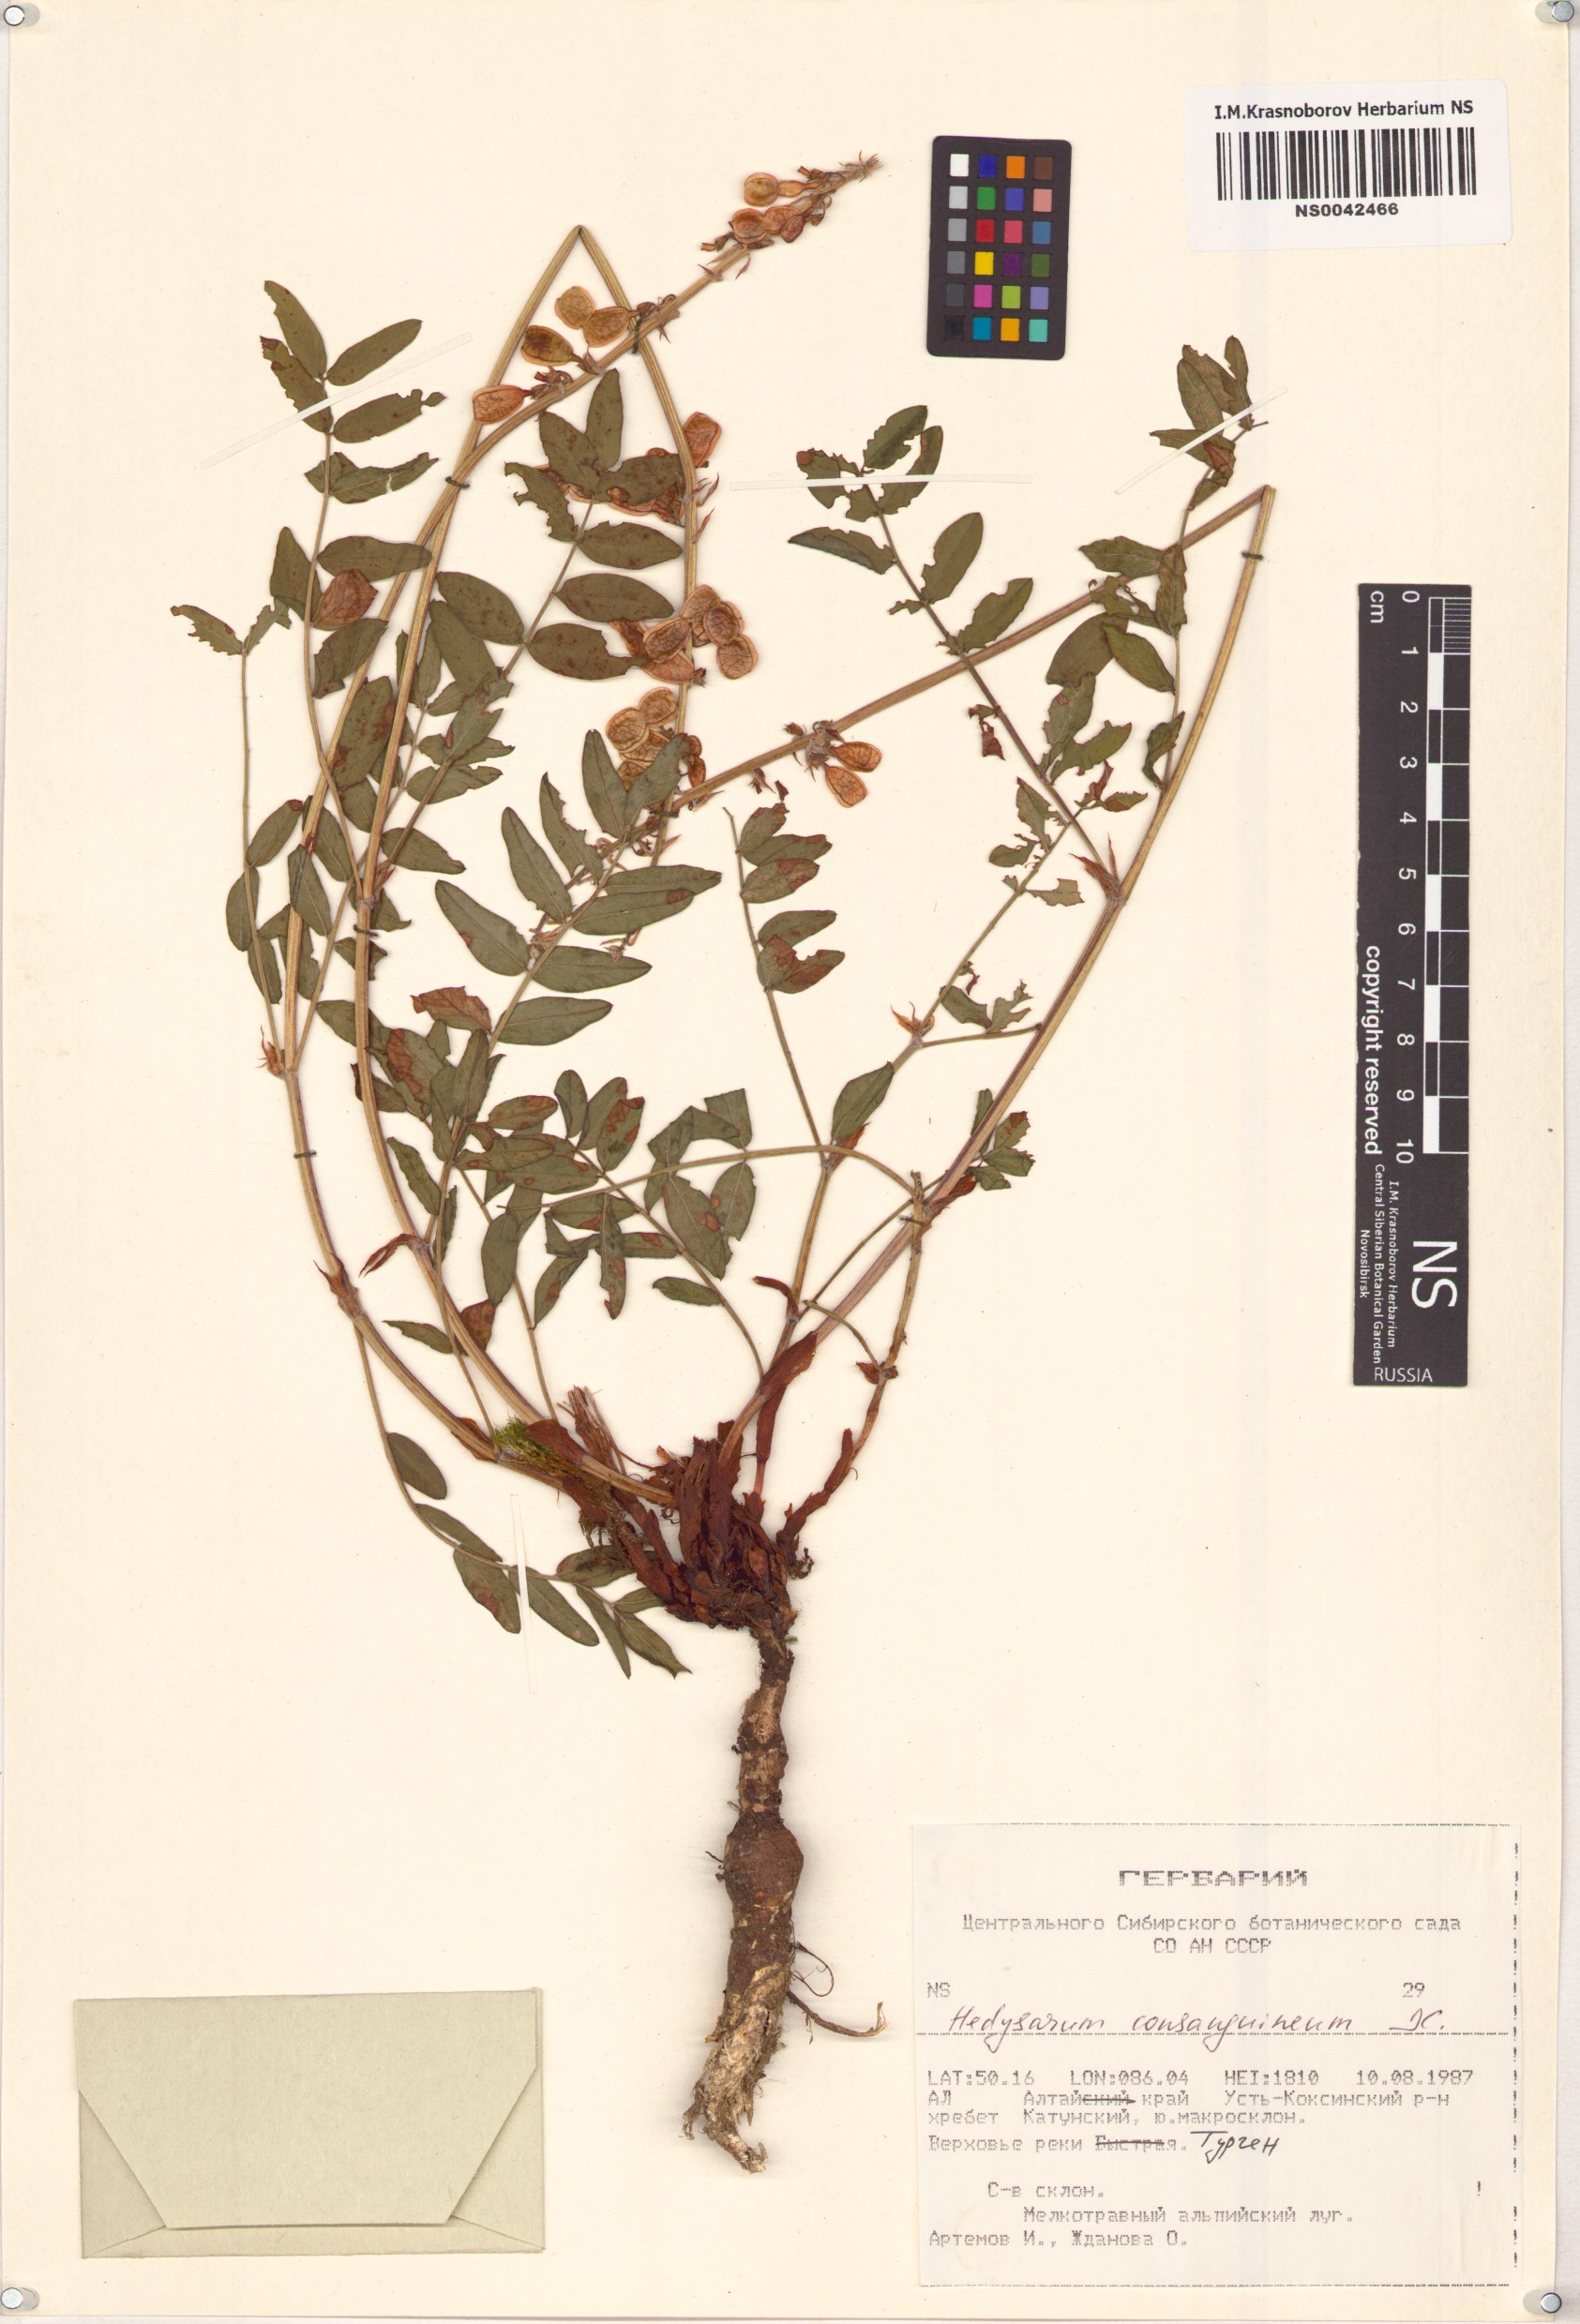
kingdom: Plantae
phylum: Tracheophyta
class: Magnoliopsida
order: Fabales
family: Fabaceae
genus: Hedysarum
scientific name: Hedysarum consanguineum
